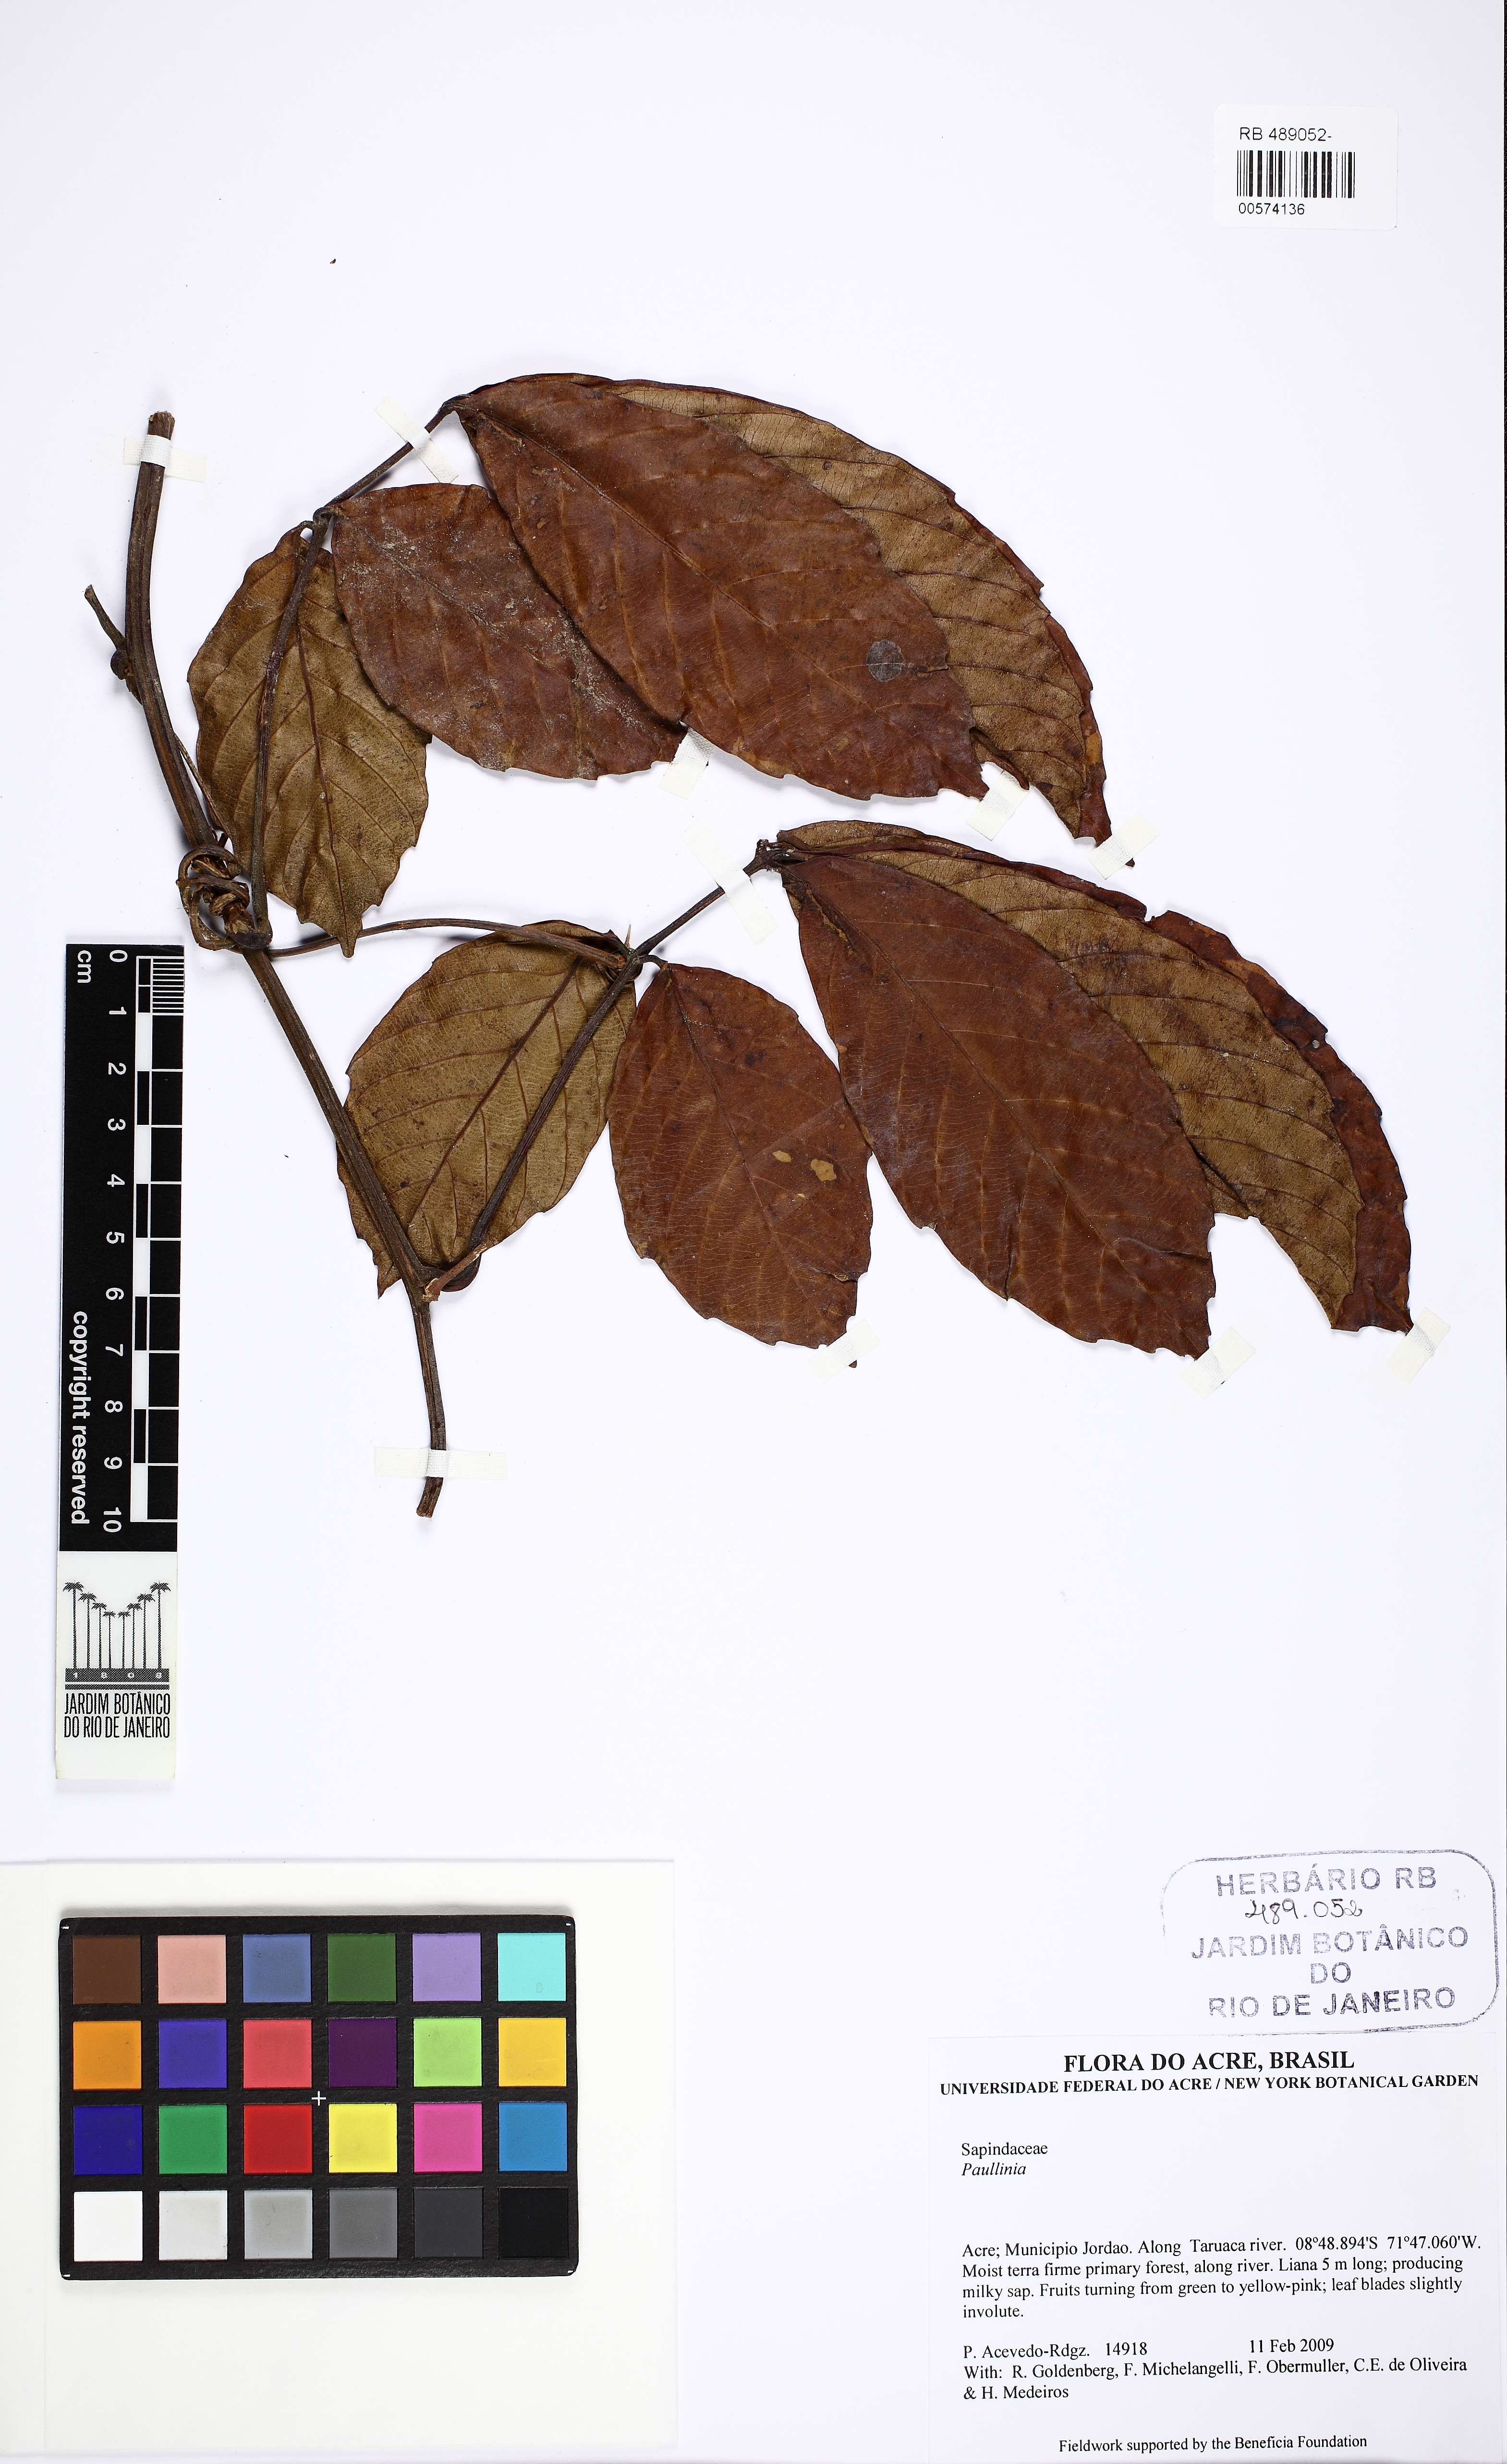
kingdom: Plantae
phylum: Tracheophyta
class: Magnoliopsida
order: Sapindales
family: Sapindaceae
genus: Paullinia
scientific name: Paullinia capreolata
